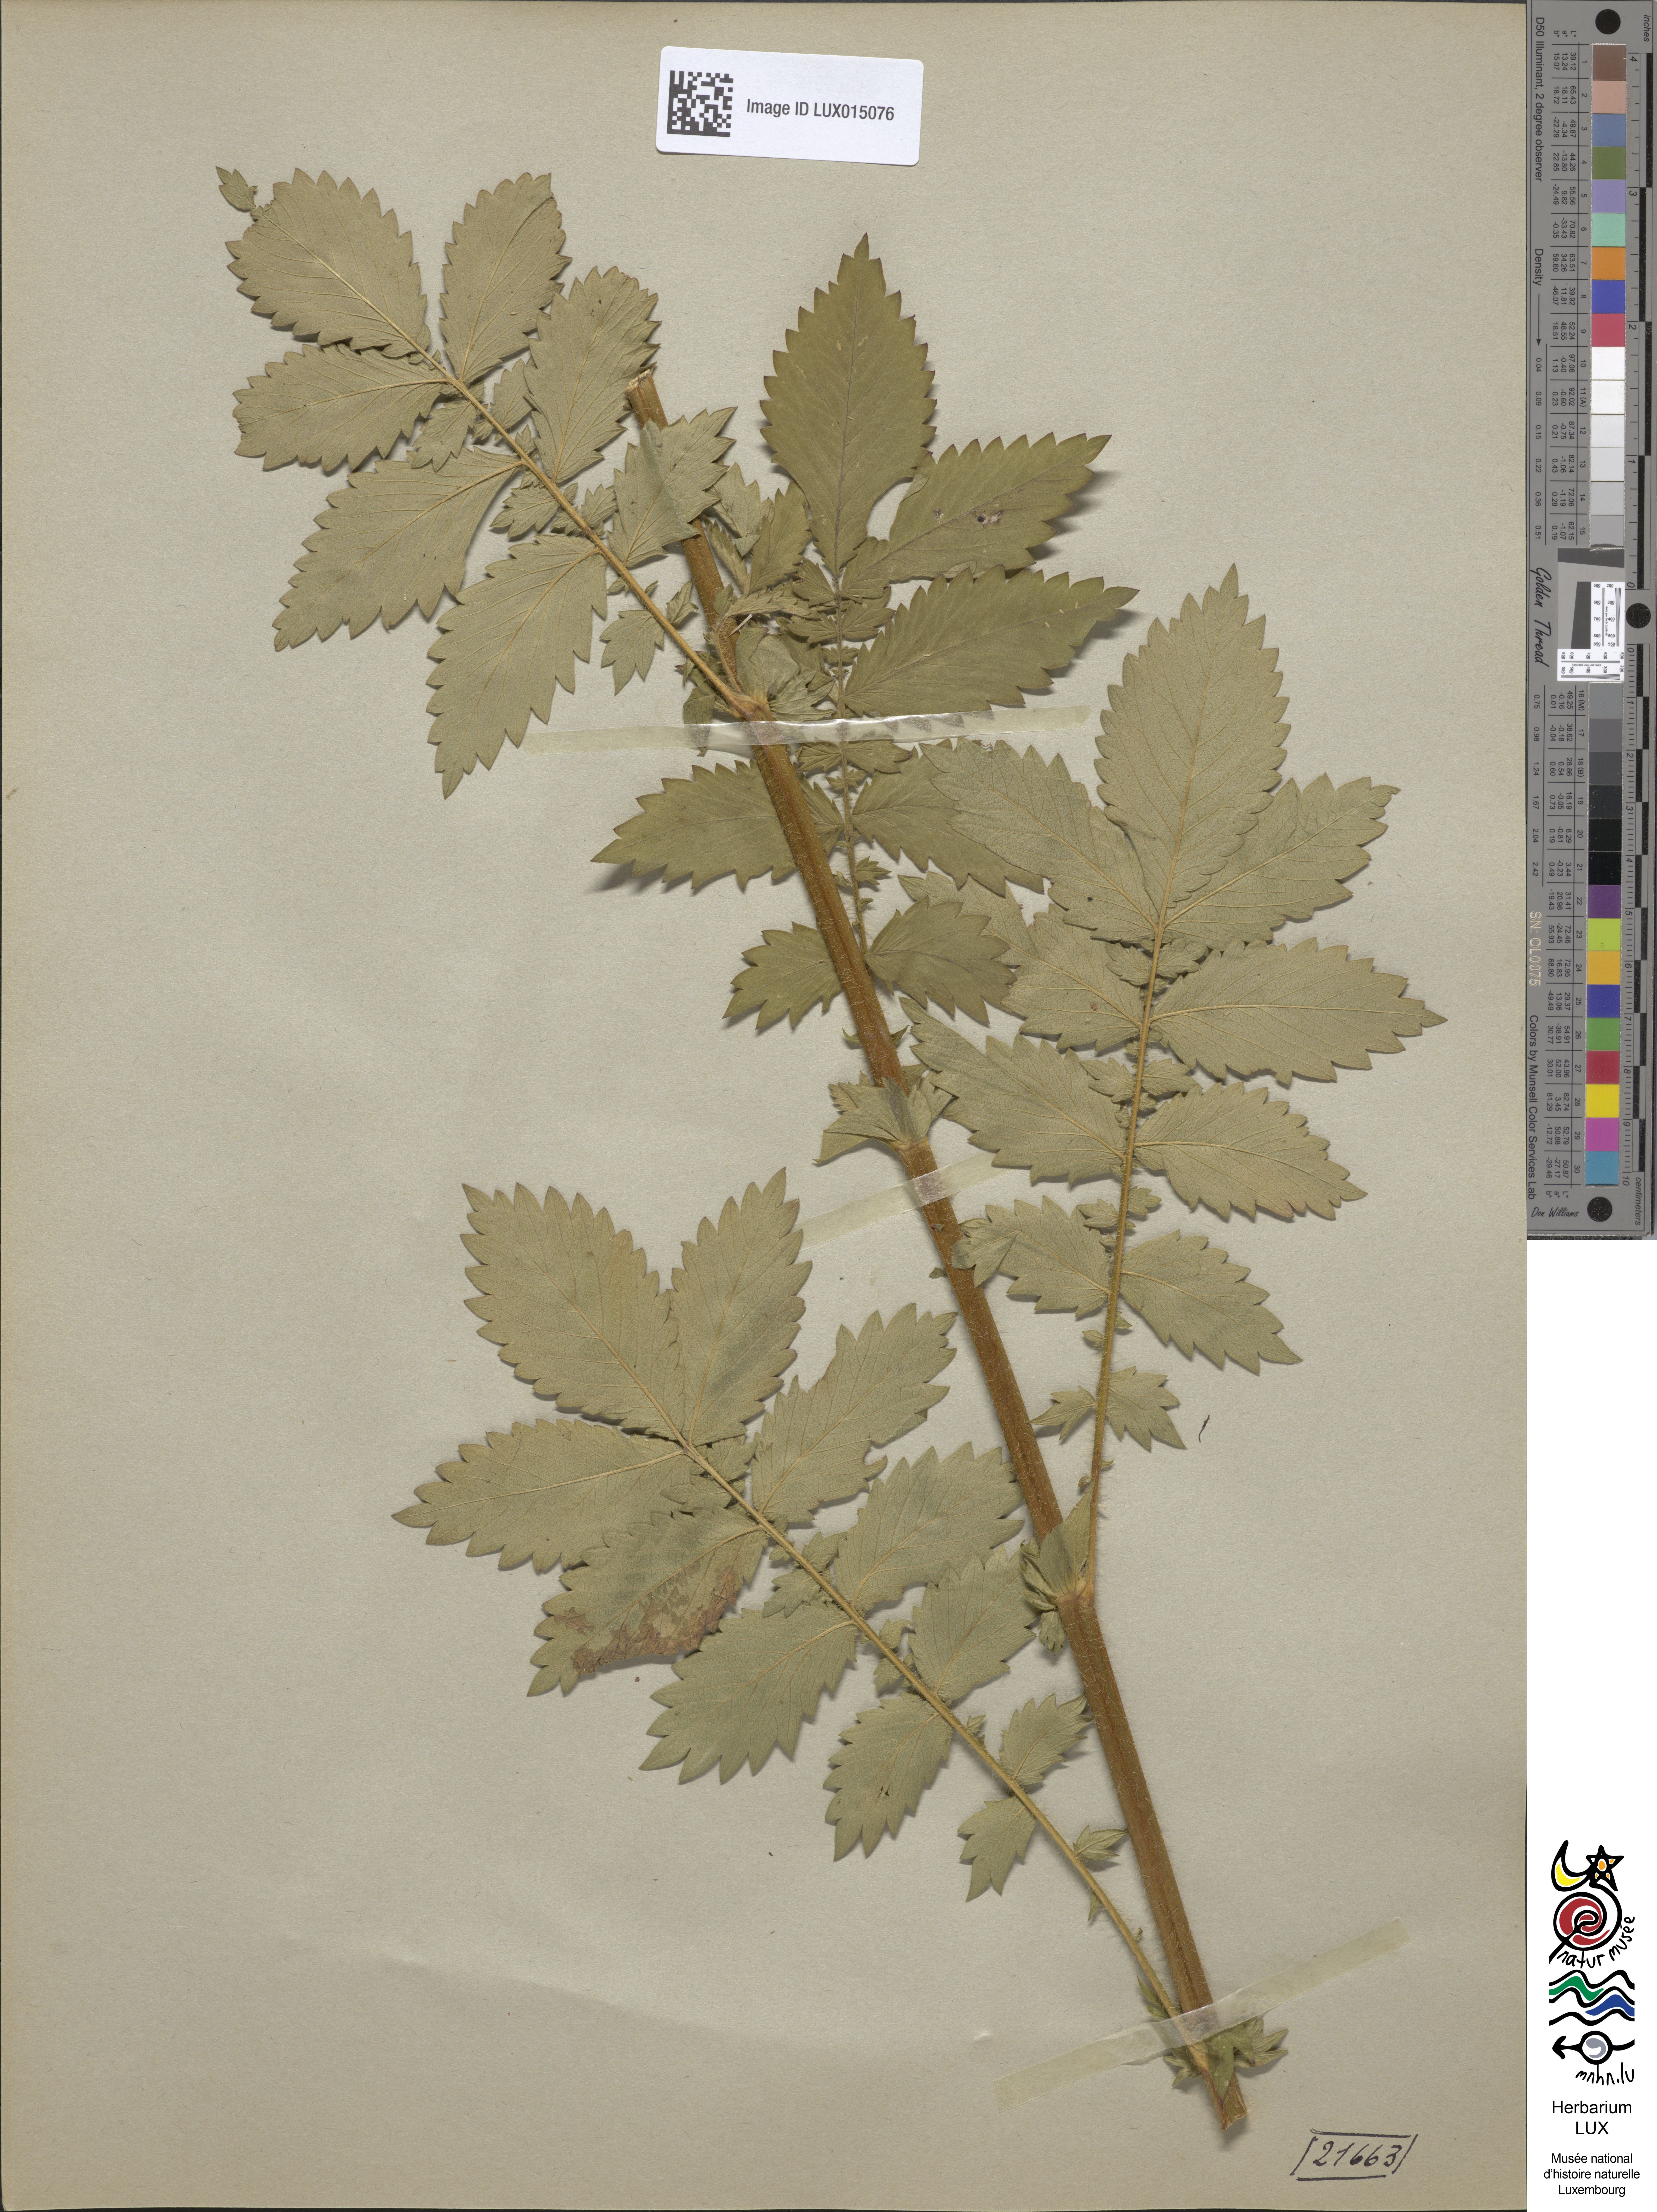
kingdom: Plantae
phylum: Tracheophyta
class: Magnoliopsida
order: Rosales
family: Rosaceae
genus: Agrimonia
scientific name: Agrimonia repens
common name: Creeping agrimony
